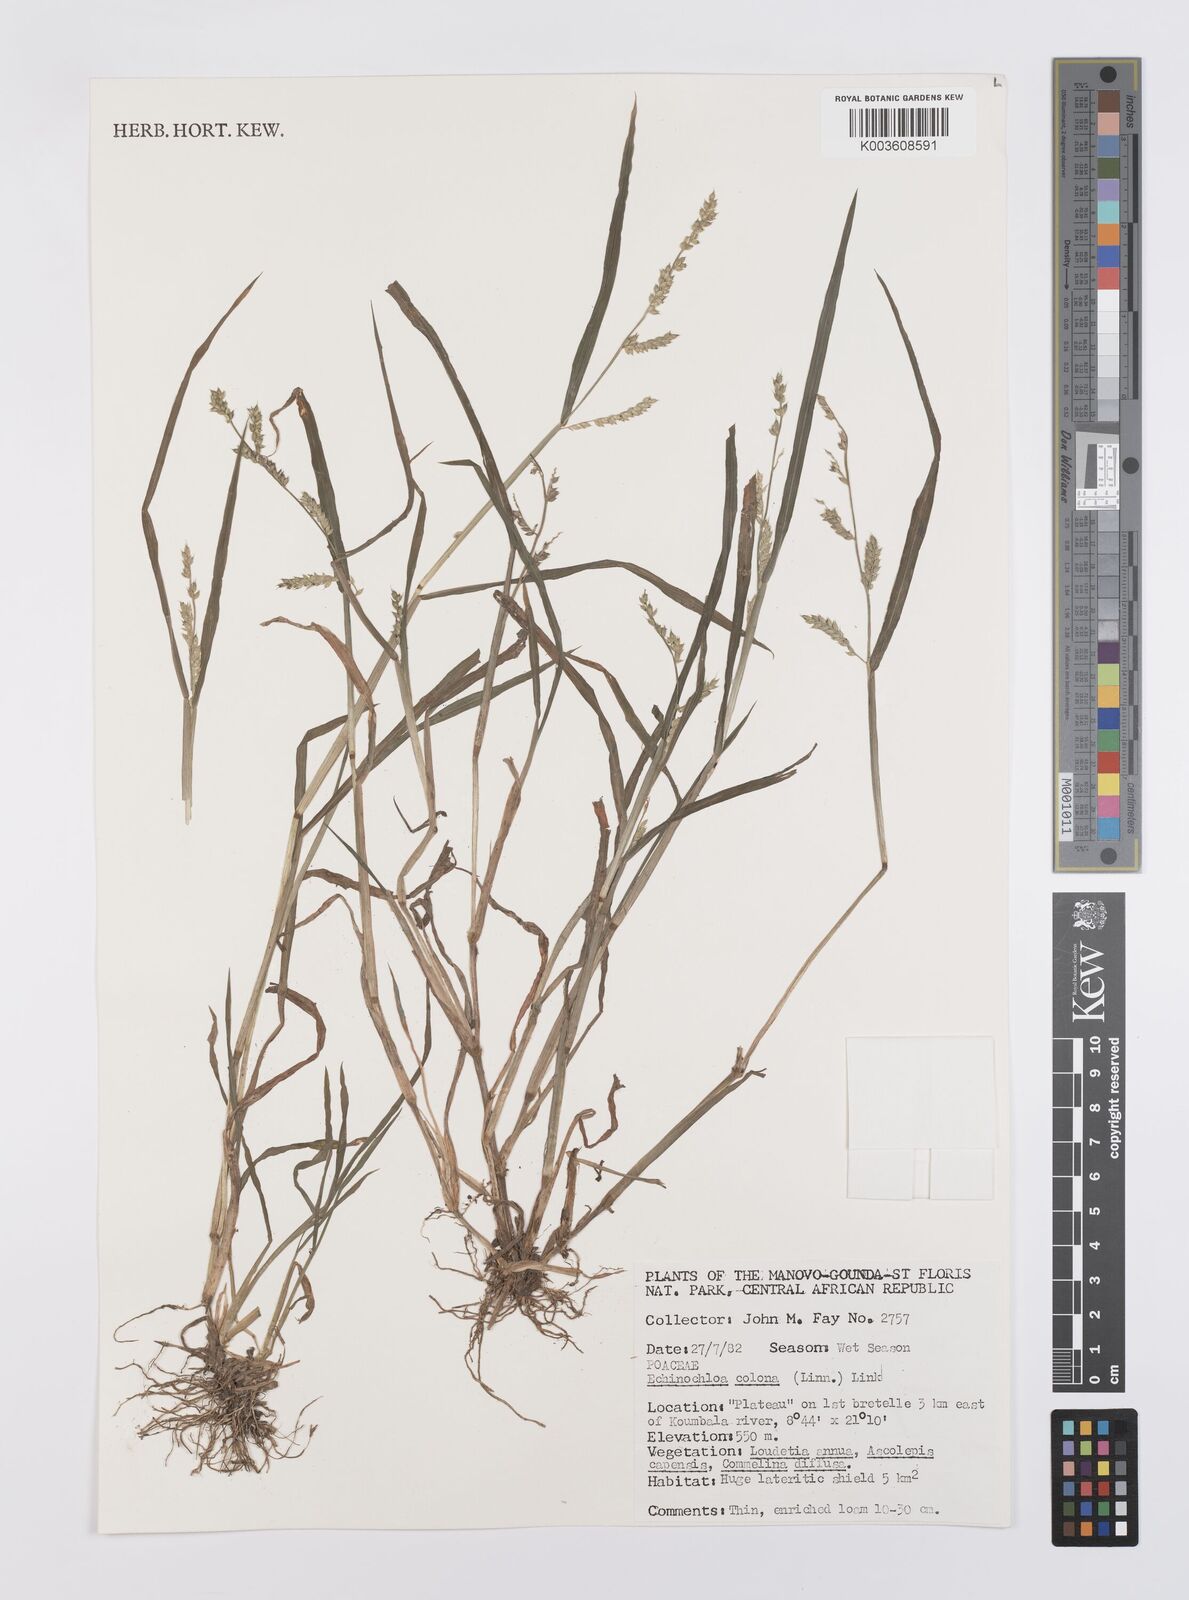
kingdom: Plantae
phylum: Tracheophyta
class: Liliopsida
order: Poales
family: Poaceae
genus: Echinochloa
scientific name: Echinochloa colonum
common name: Jungle rice
